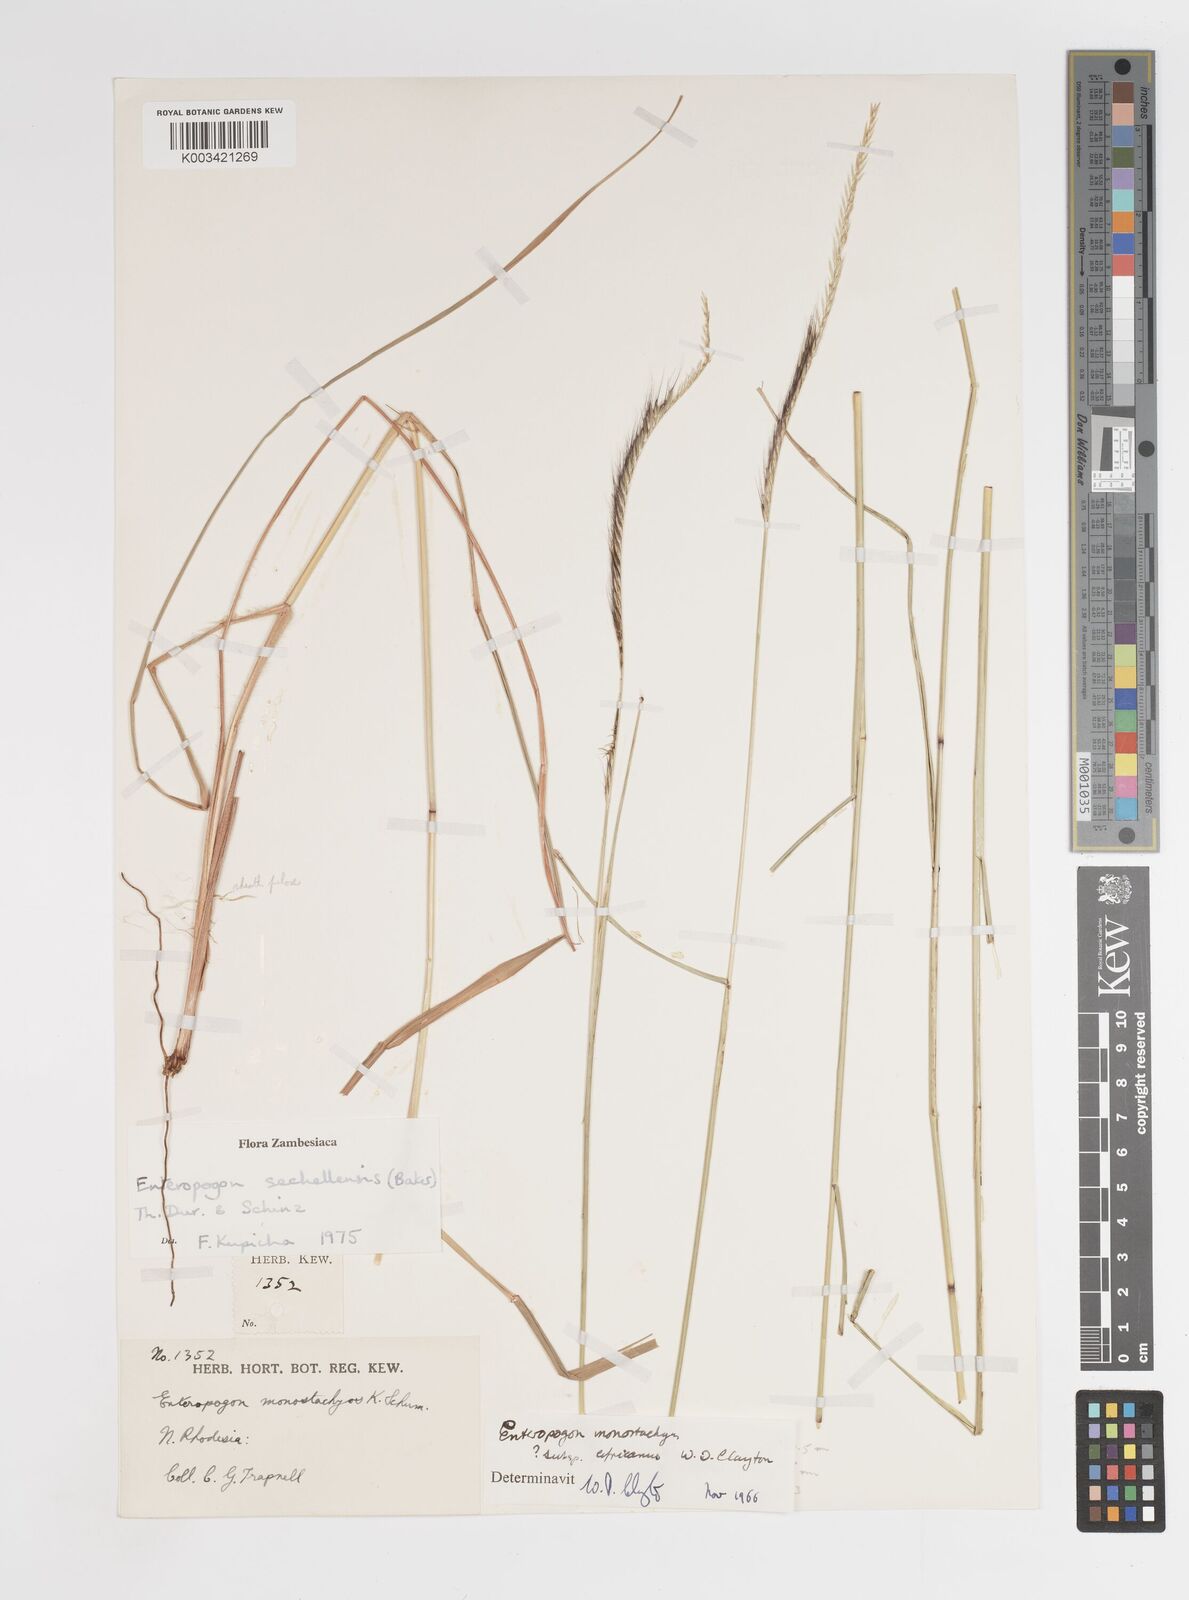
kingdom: Plantae
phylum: Tracheophyta
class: Liliopsida
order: Poales
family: Poaceae
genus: Enteropogon
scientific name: Enteropogon sechellensis
